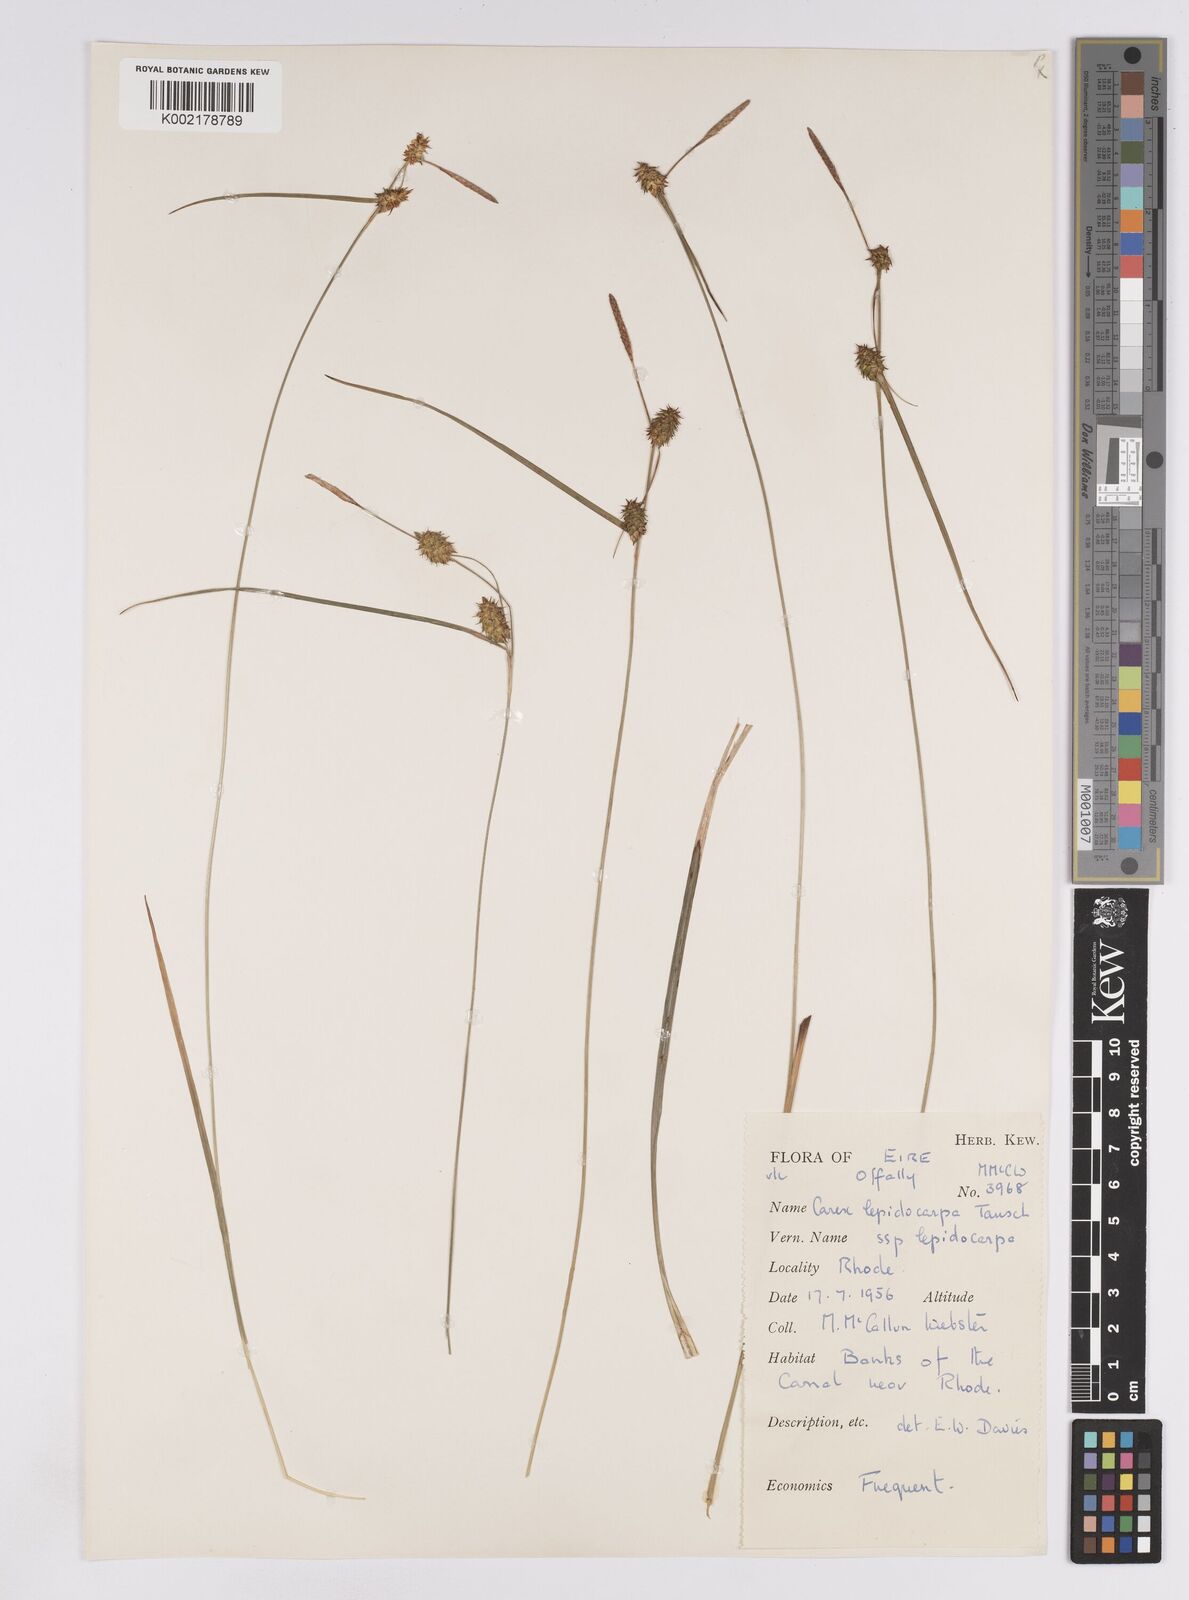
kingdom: Plantae
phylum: Tracheophyta
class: Liliopsida
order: Poales
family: Cyperaceae
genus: Carex
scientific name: Carex lepidocarpa
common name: Long-stalked yellow-sedge
